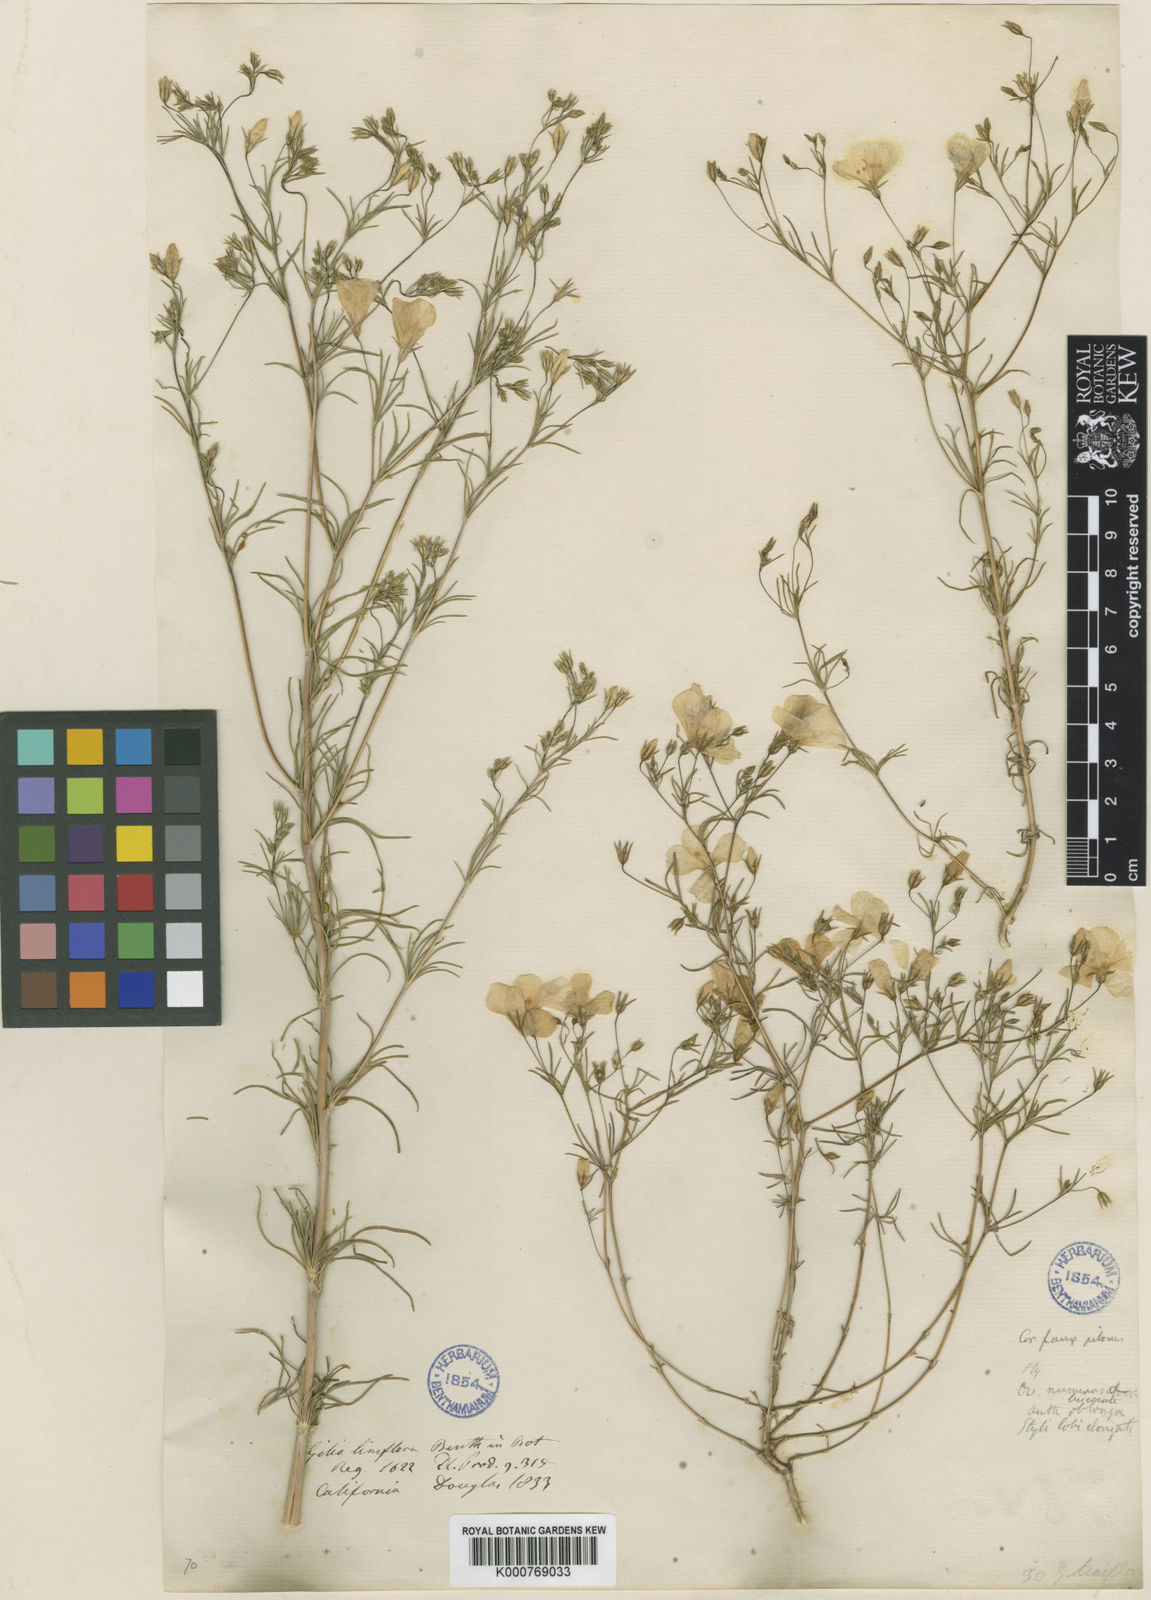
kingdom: Plantae
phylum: Tracheophyta
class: Magnoliopsida
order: Ericales
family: Polemoniaceae
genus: Leptosiphon
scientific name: Leptosiphon liniflorus
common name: Narrowflower flaxflower
